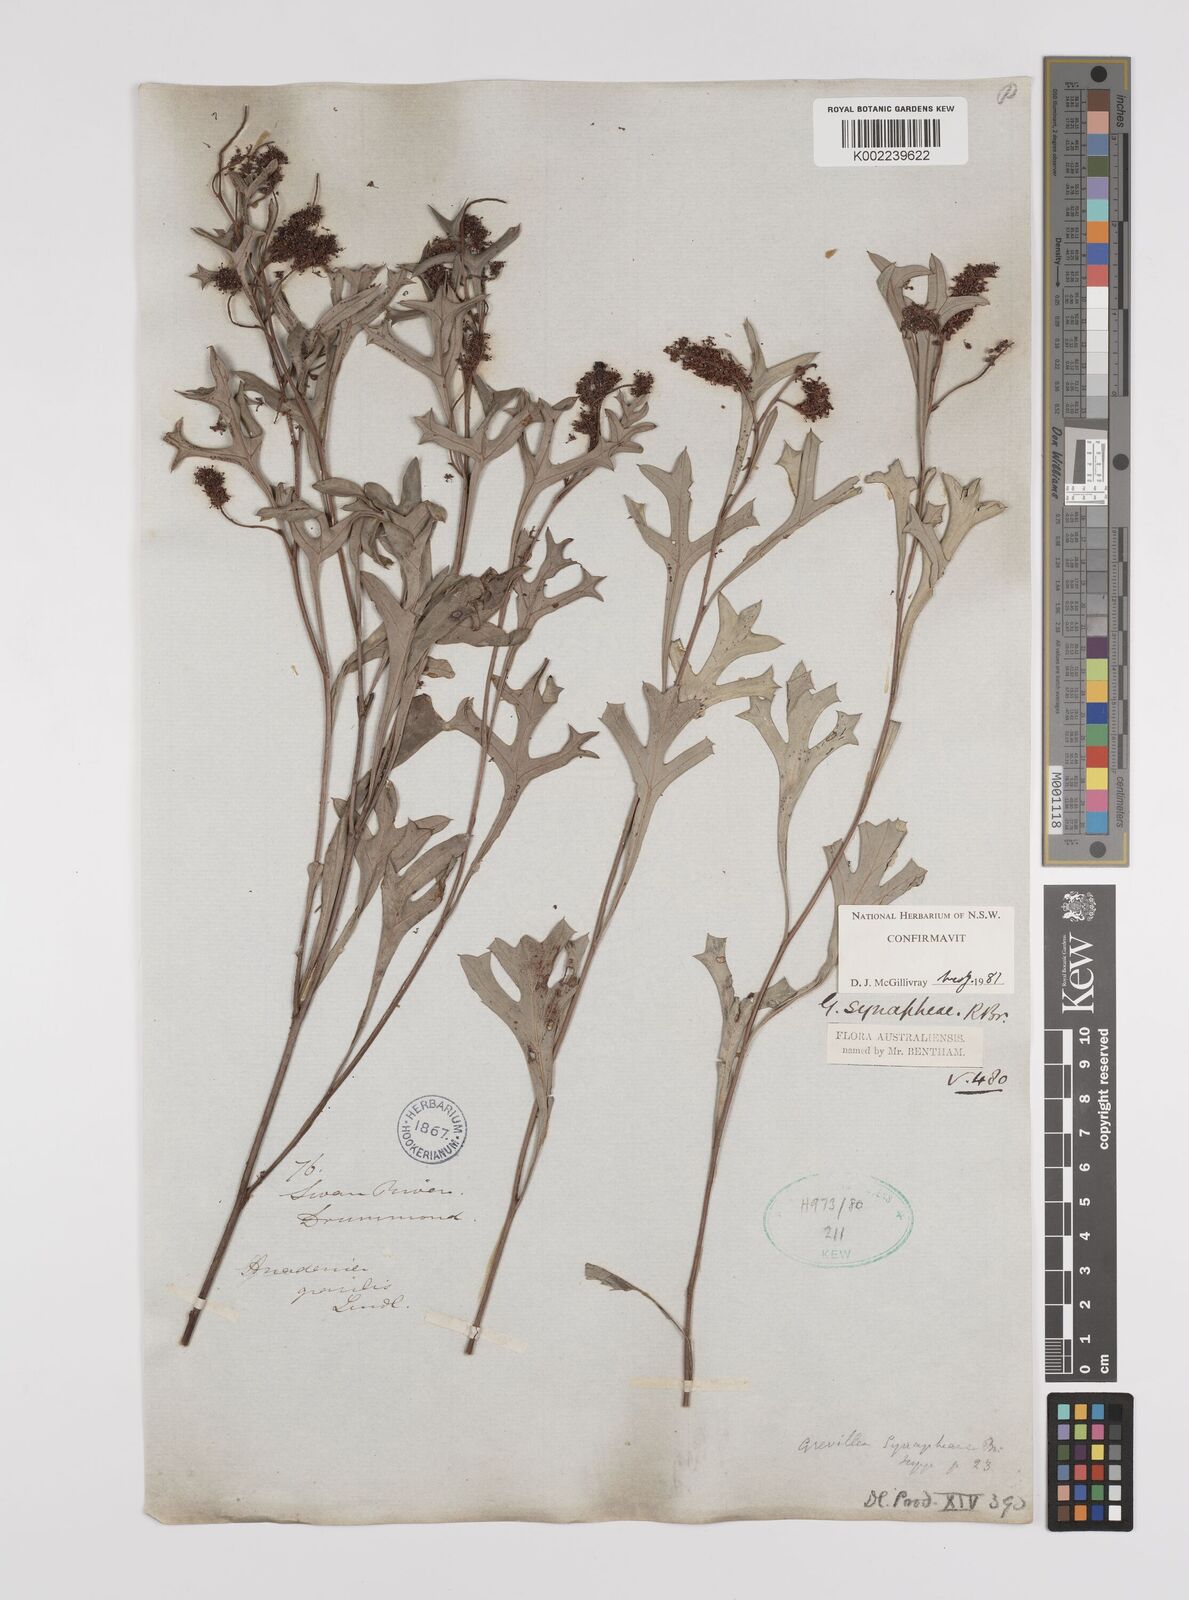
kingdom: Plantae
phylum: Tracheophyta
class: Magnoliopsida
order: Proteales
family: Proteaceae
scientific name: Proteaceae
